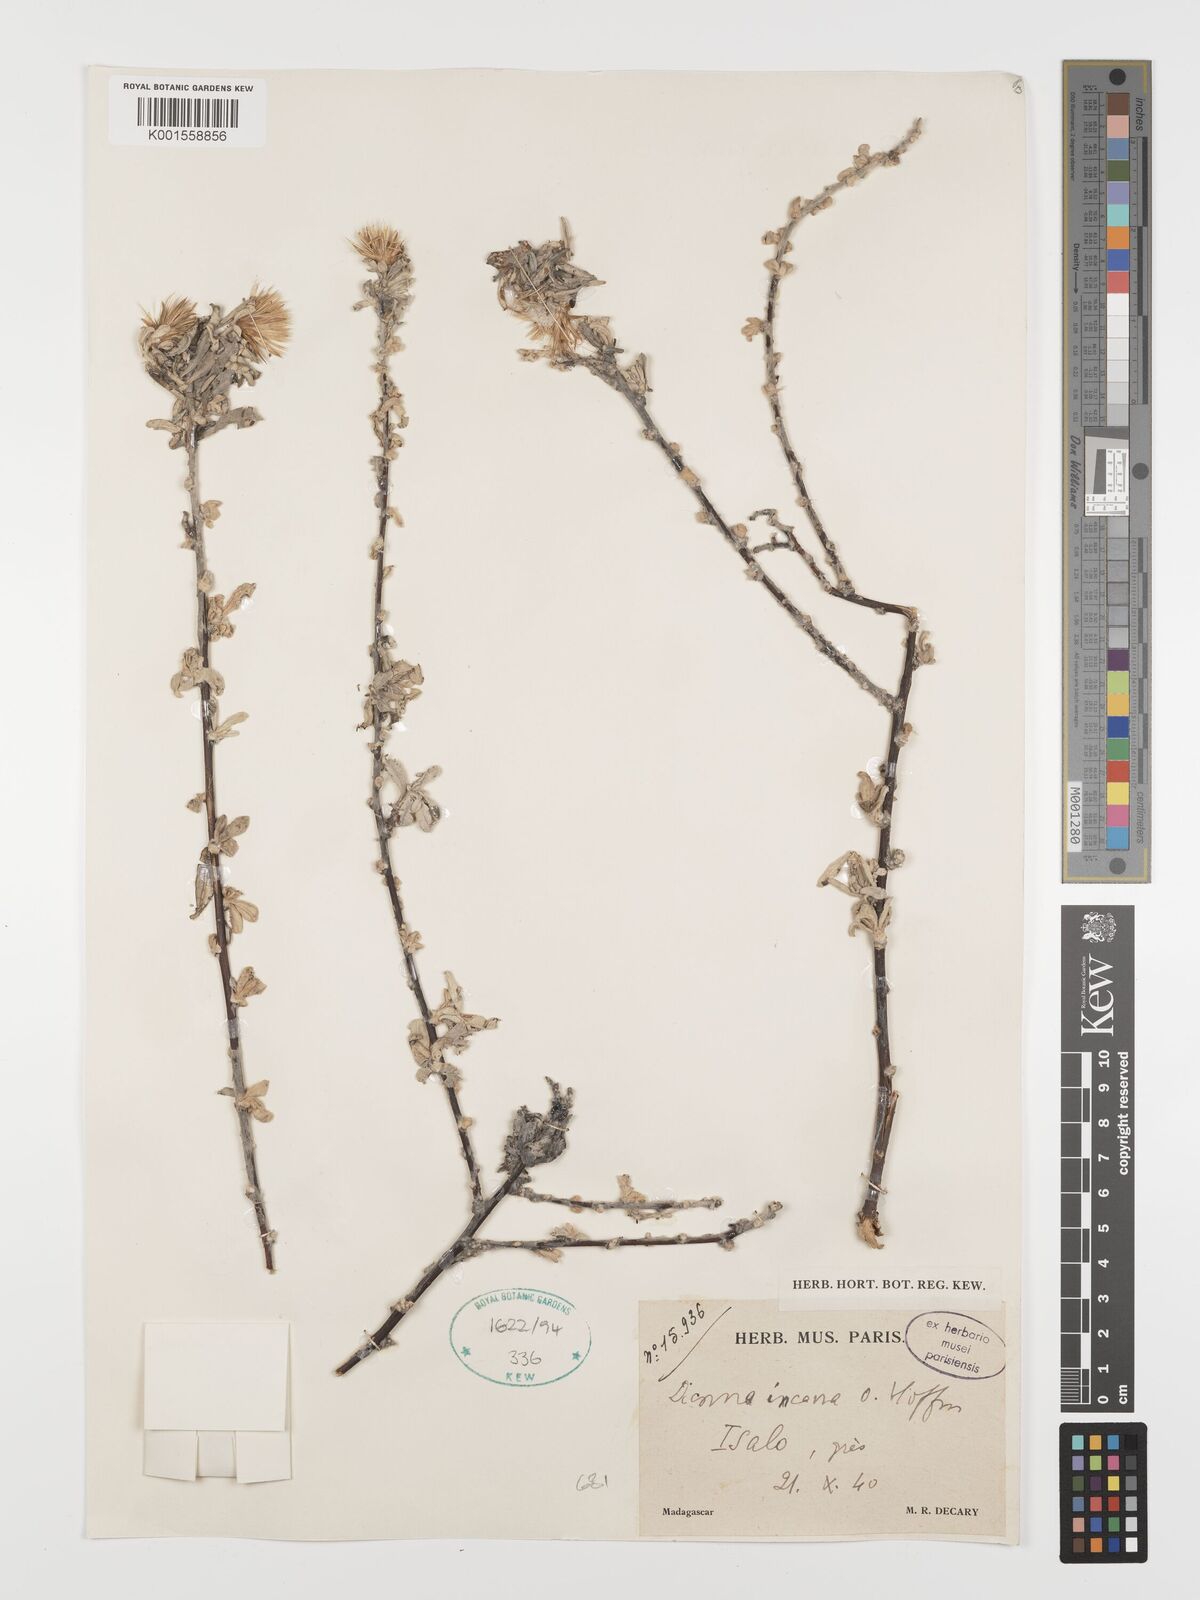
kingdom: Plantae
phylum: Tracheophyta
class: Magnoliopsida
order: Asterales
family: Asteraceae
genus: Dicoma
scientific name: Dicoma incana
